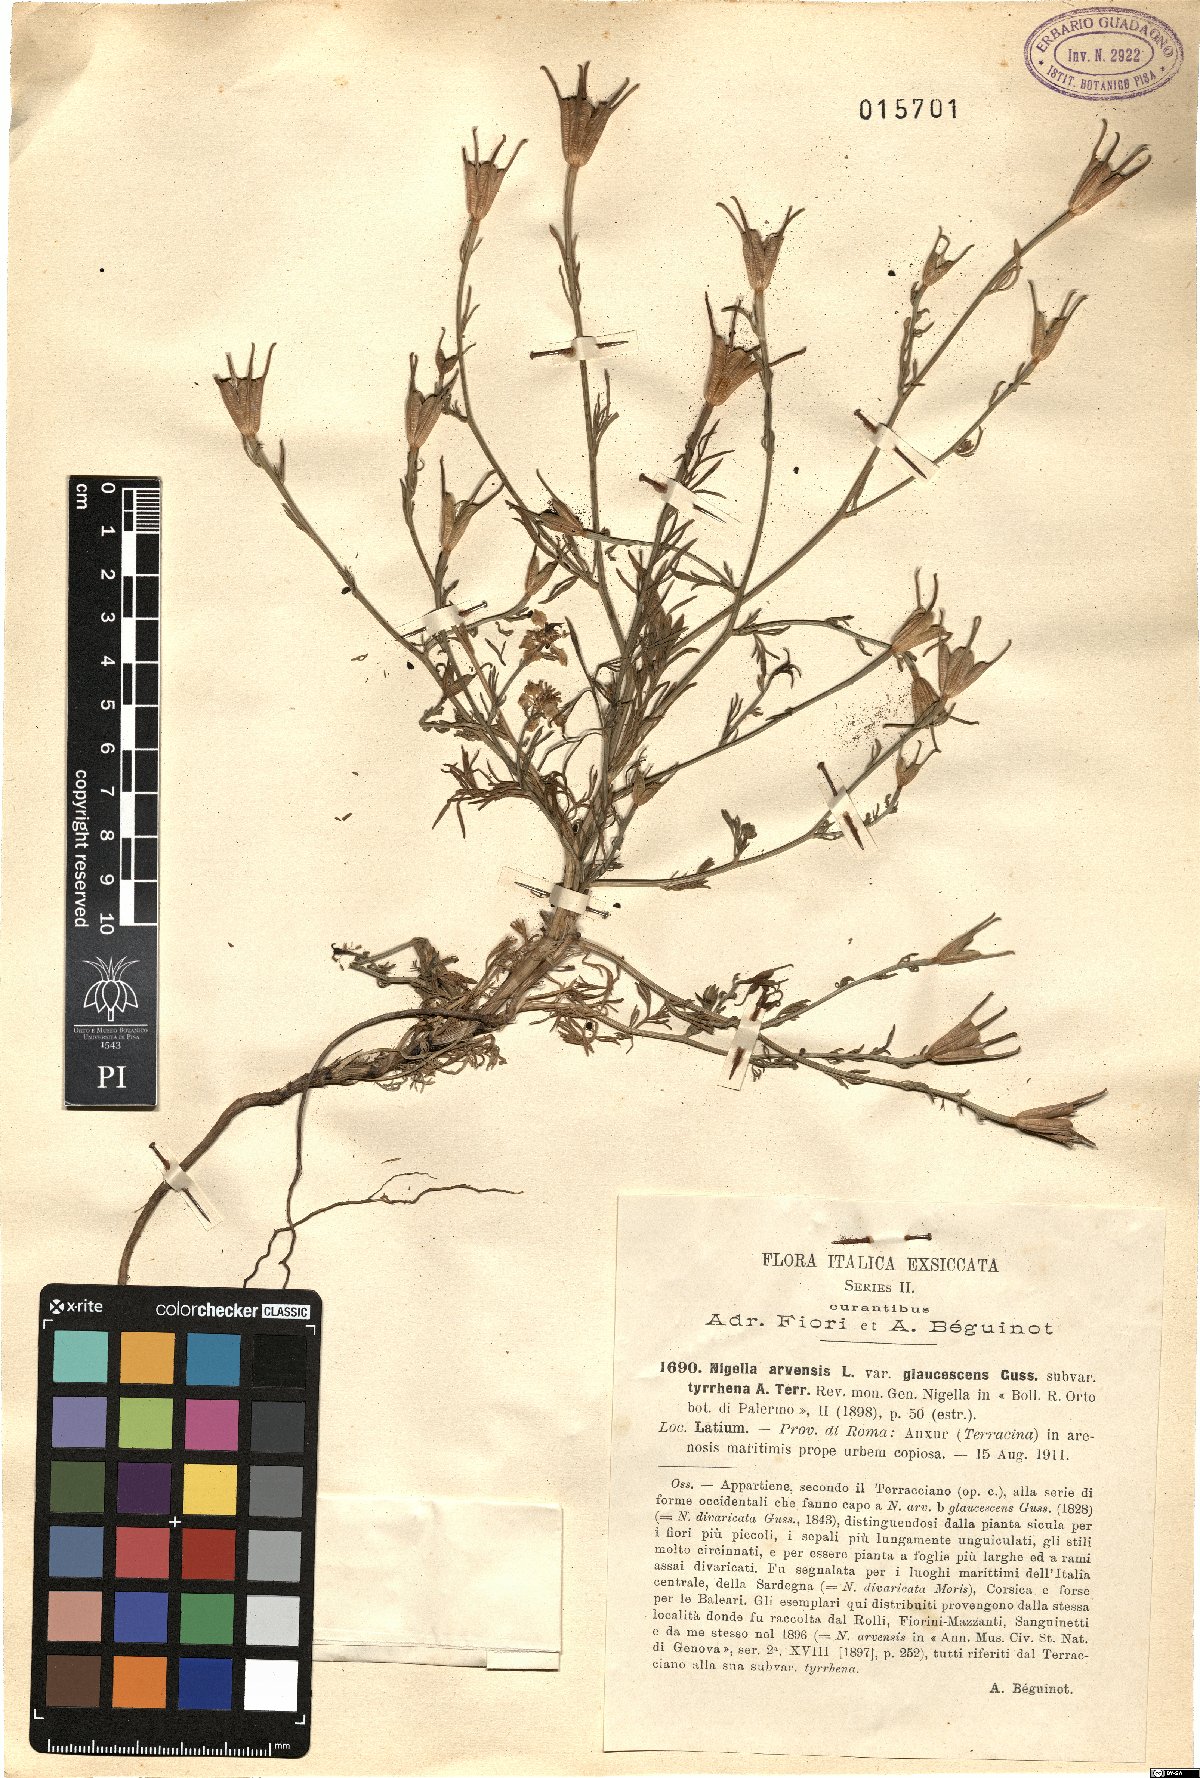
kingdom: Plantae
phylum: Tracheophyta
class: Magnoliopsida
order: Ranunculales
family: Ranunculaceae
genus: Nigella
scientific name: Nigella arvensis
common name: Wild fennel-flower
